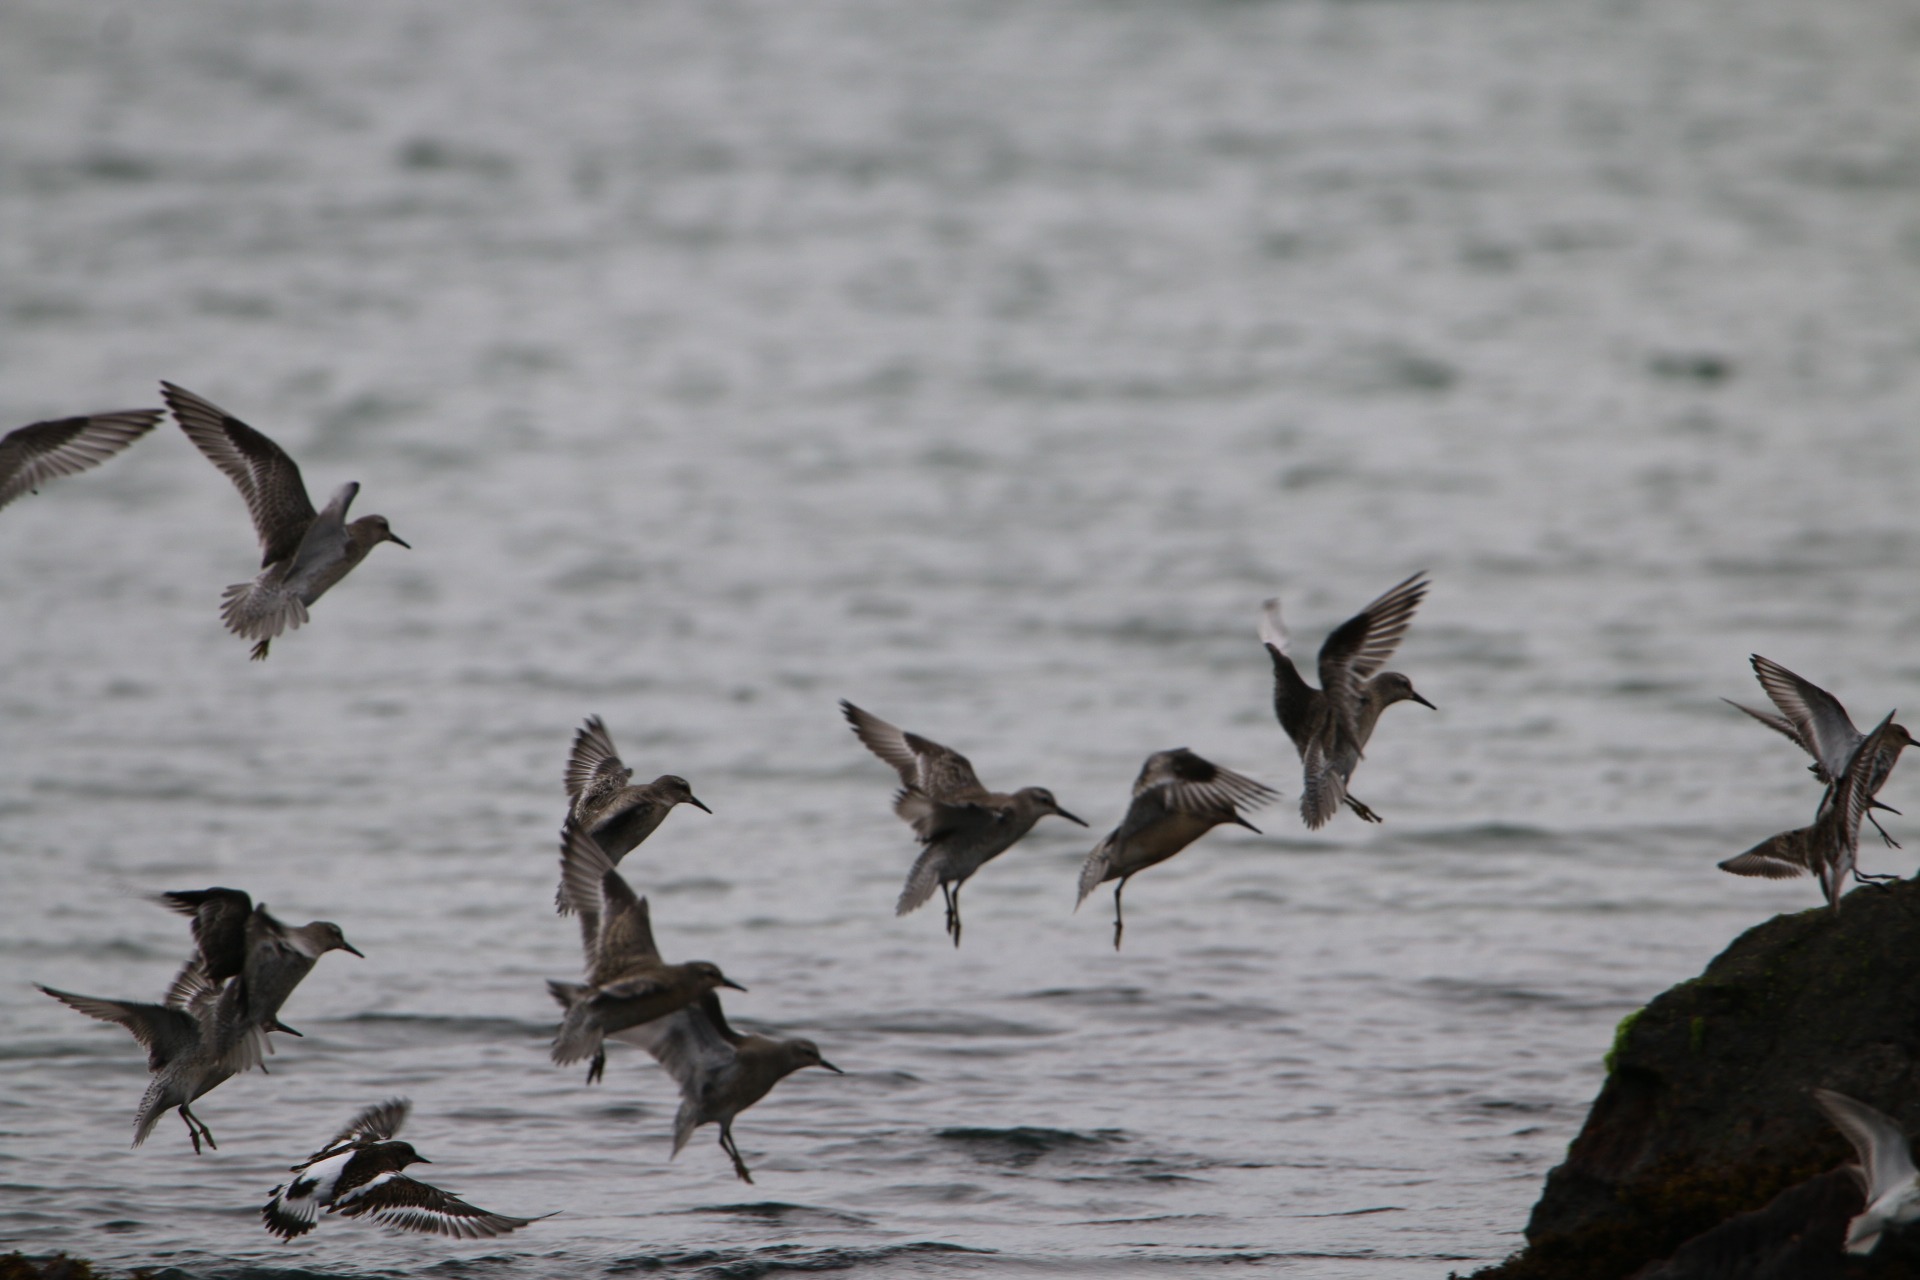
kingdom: Animalia
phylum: Chordata
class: Aves
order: Charadriiformes
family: Scolopacidae
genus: Calidris
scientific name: Calidris canutus
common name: Islandsk ryle
